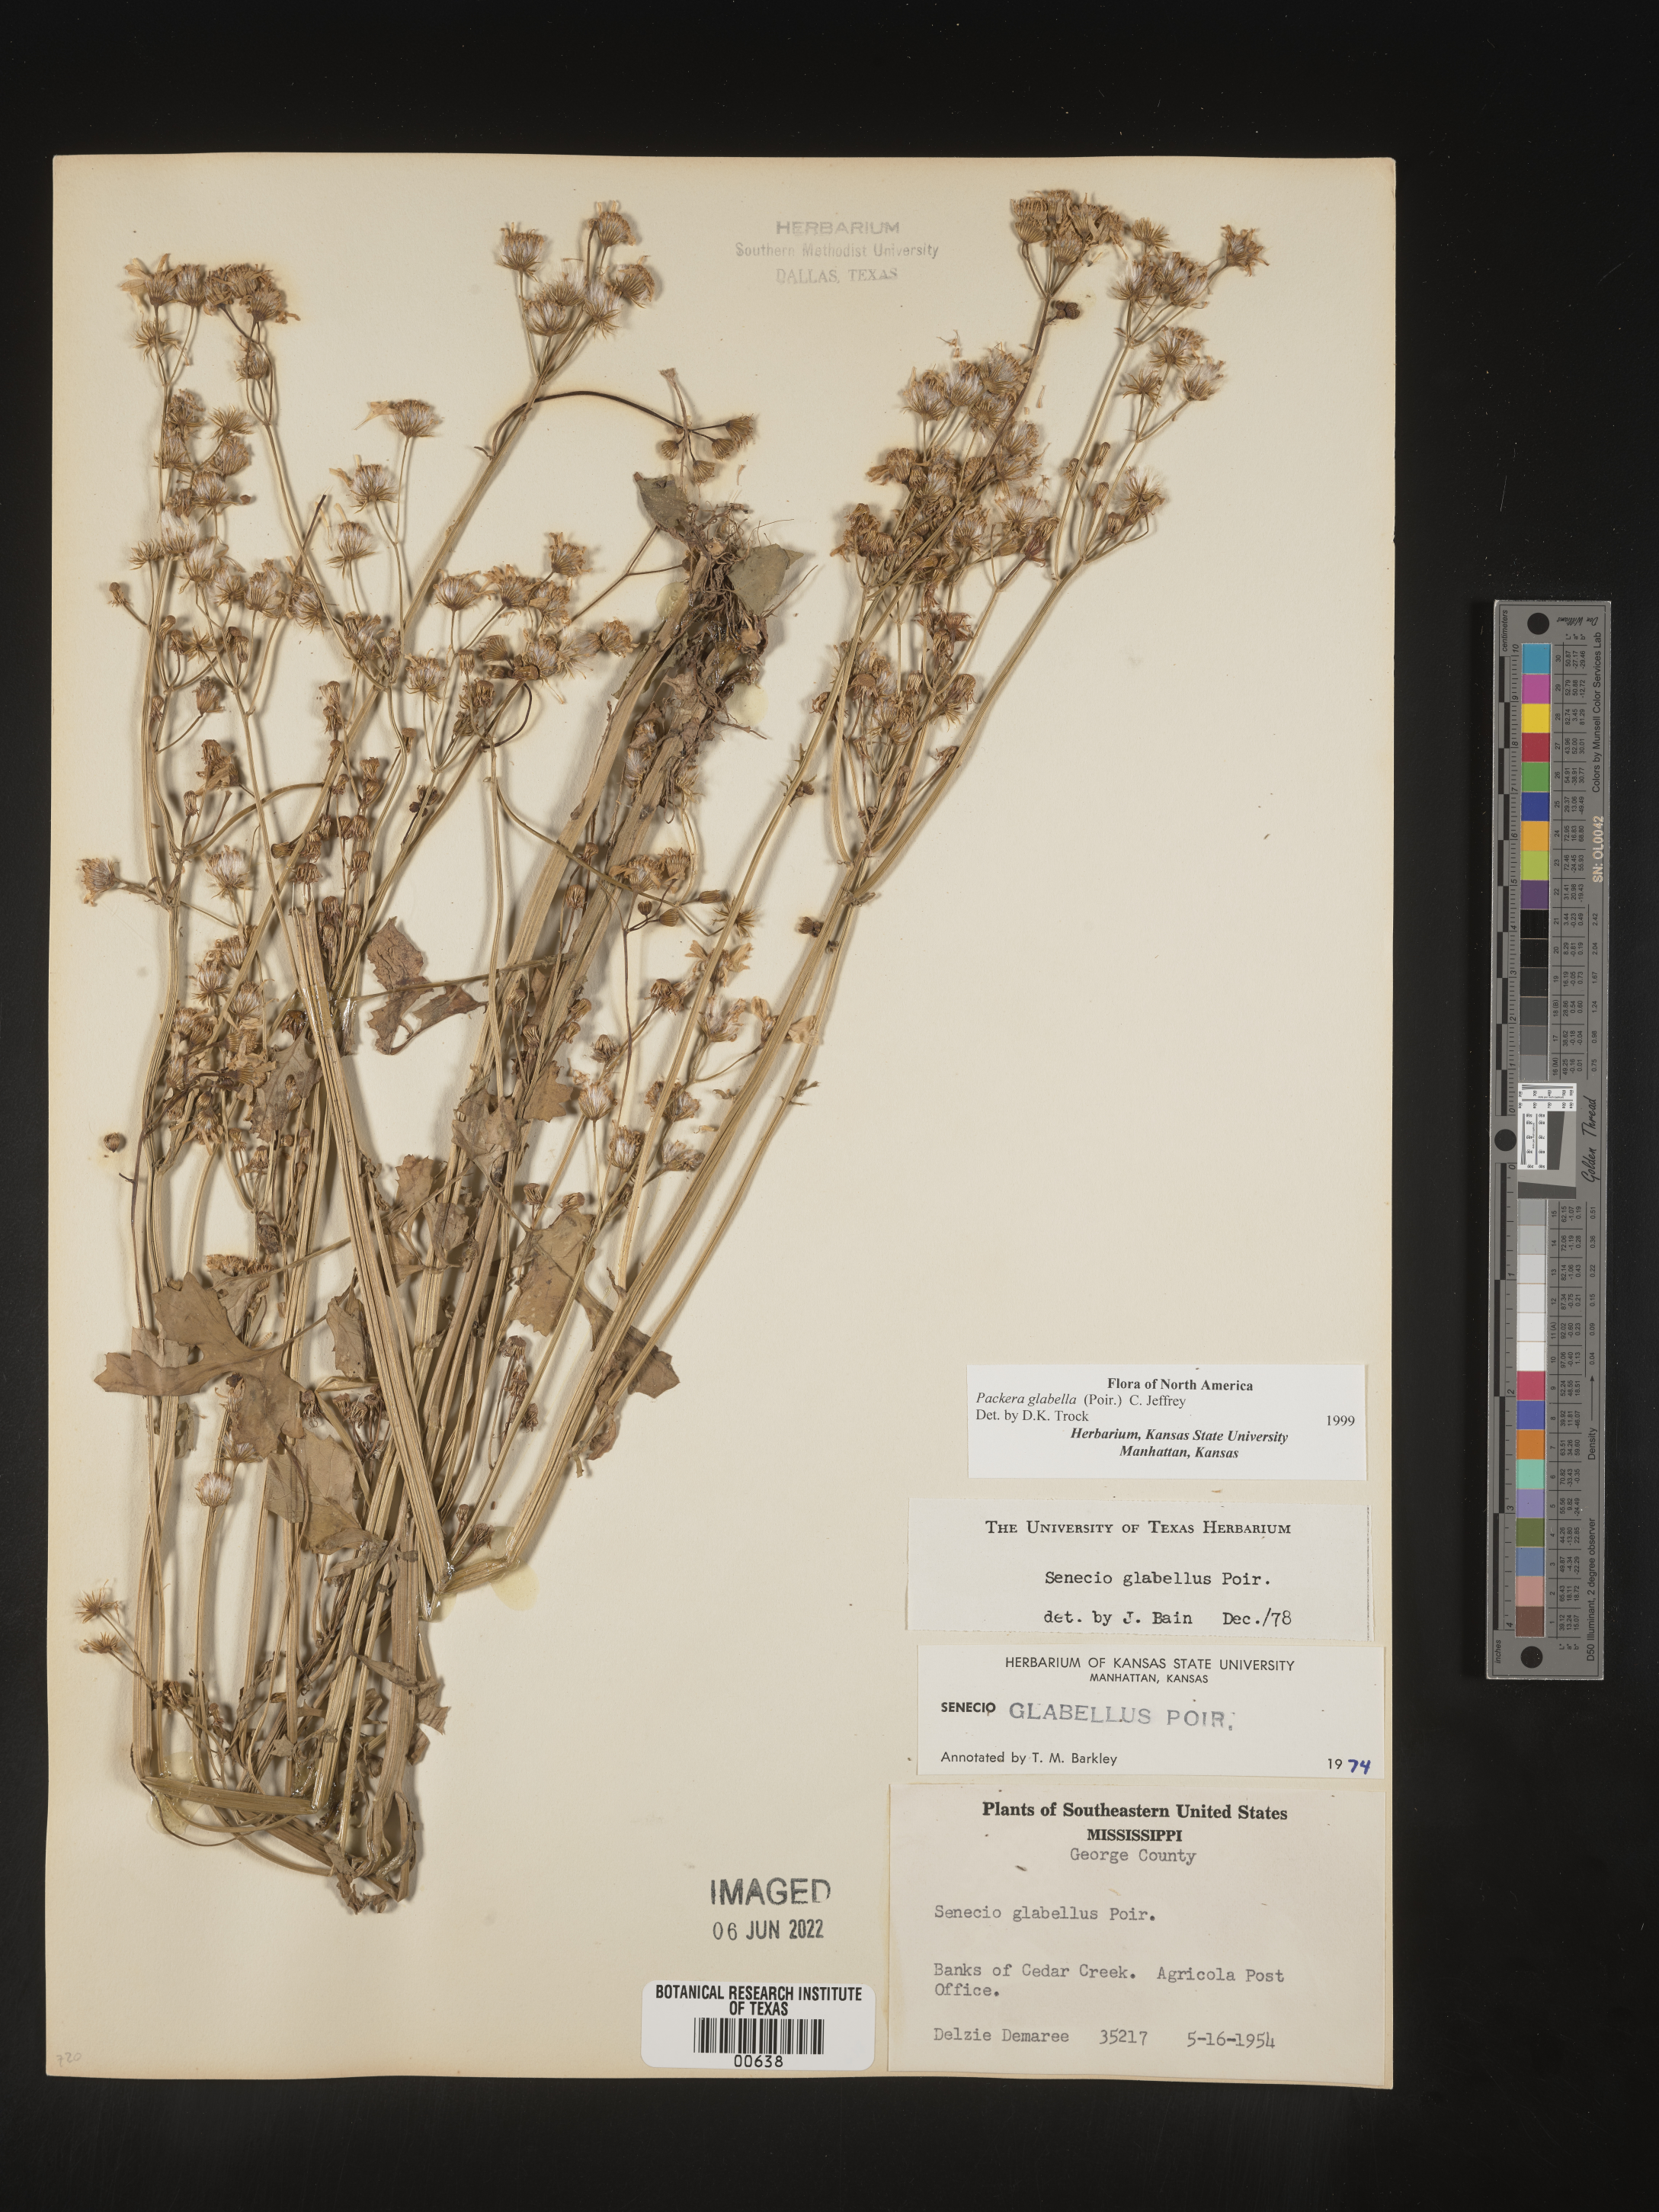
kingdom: Plantae
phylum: Tracheophyta
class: Magnoliopsida
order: Asterales
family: Asteraceae
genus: Packera
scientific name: Packera glabella
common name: Butterweed
